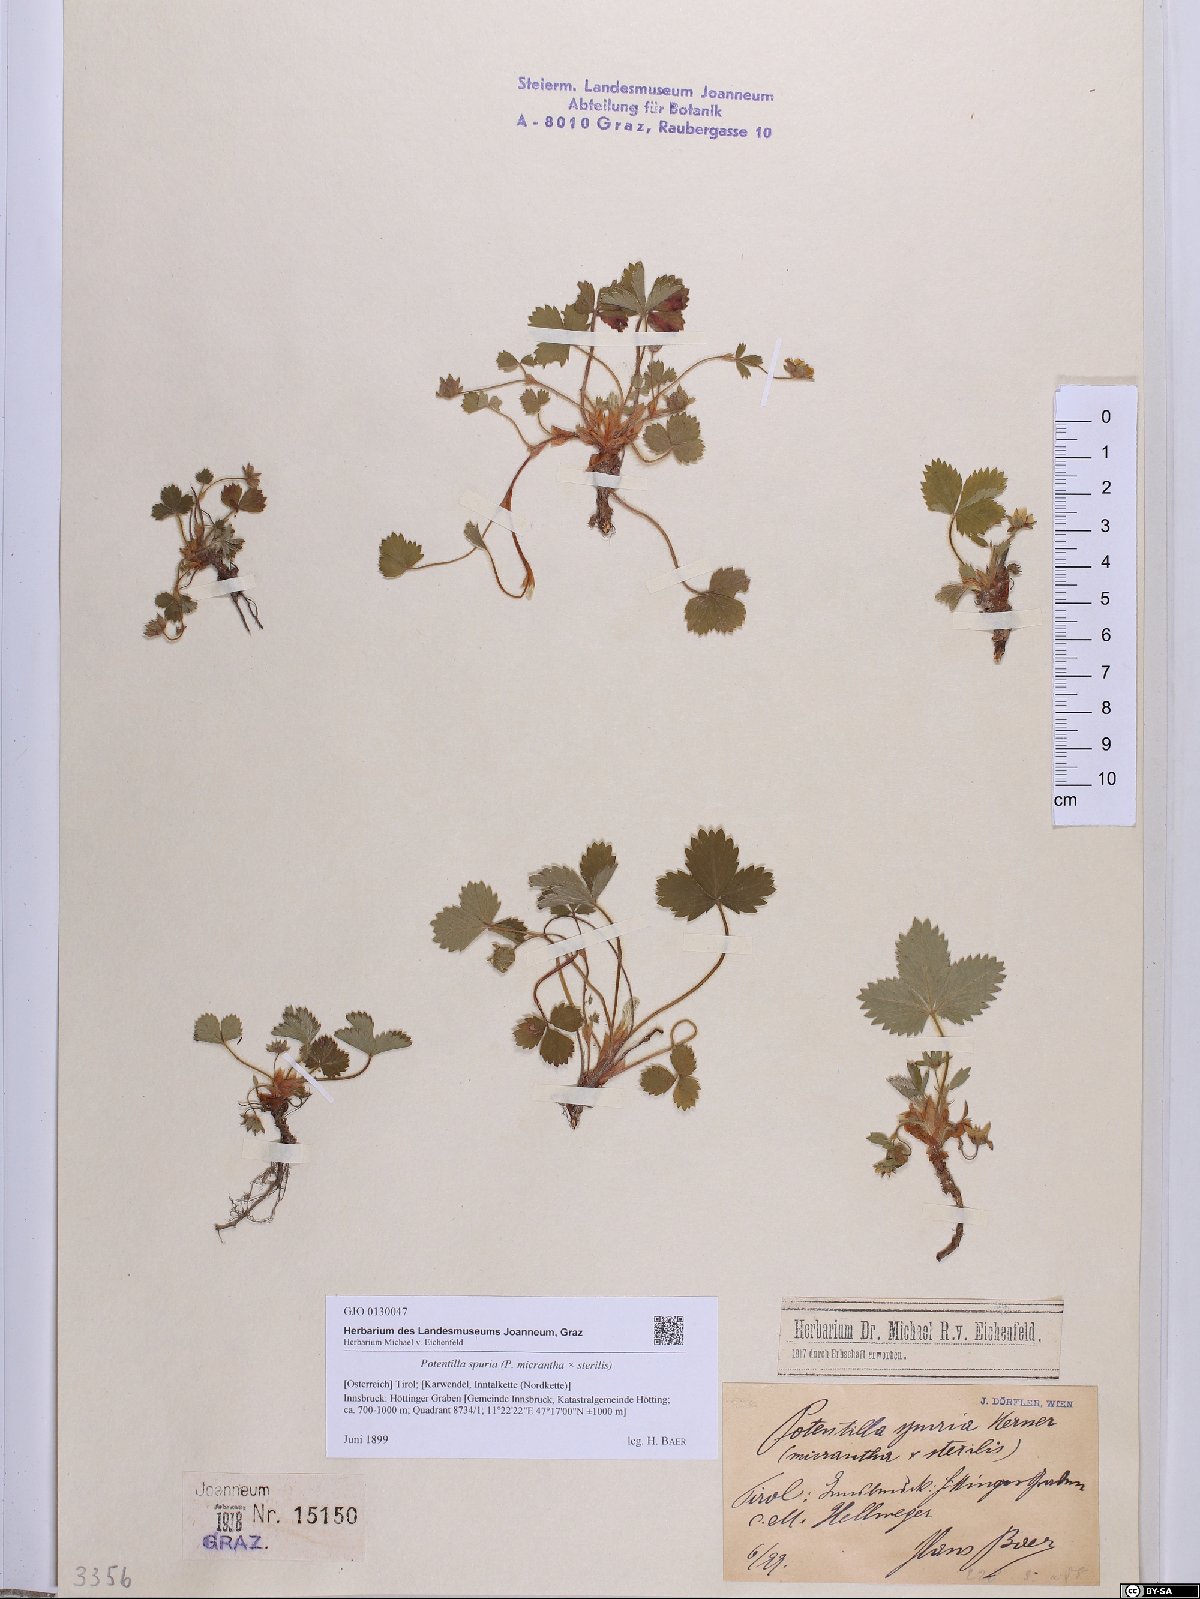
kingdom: Plantae
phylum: Tracheophyta
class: Magnoliopsida
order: Rosales
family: Rosaceae
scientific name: Rosaceae
